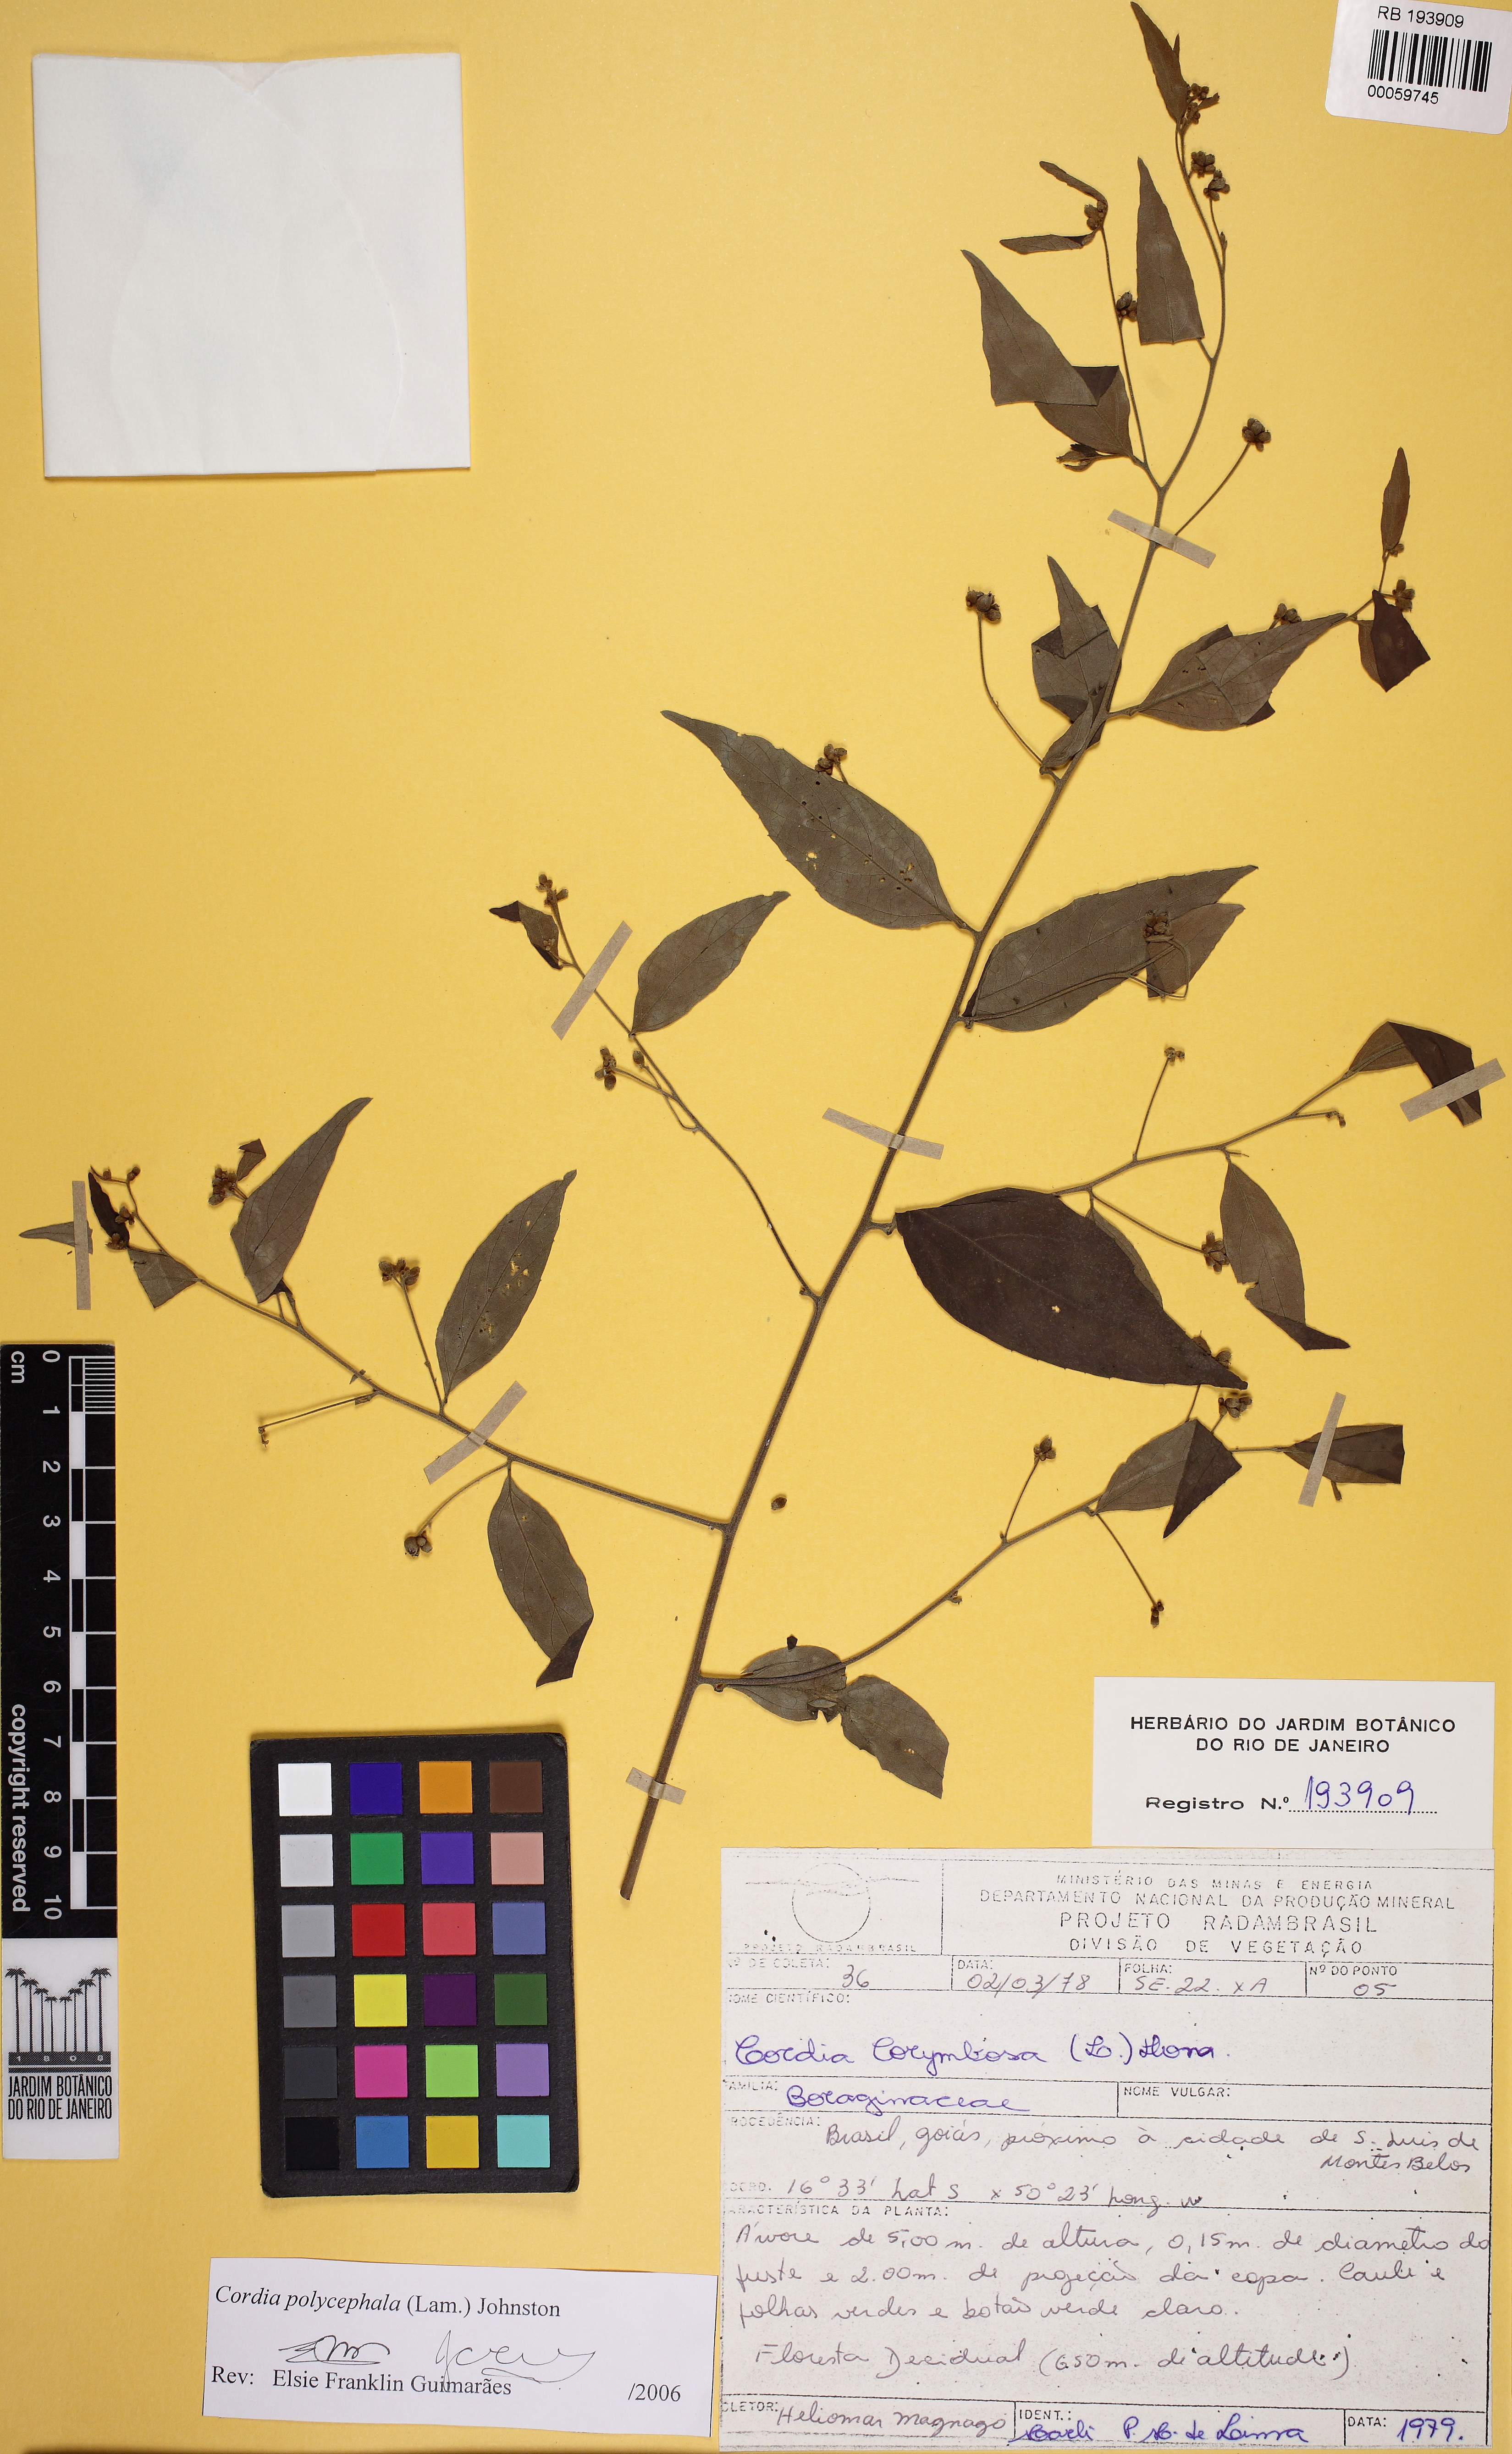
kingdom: Plantae
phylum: Tracheophyta
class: Magnoliopsida
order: Boraginales
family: Cordiaceae
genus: Varronia
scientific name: Varronia polycephala
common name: Black-sage
